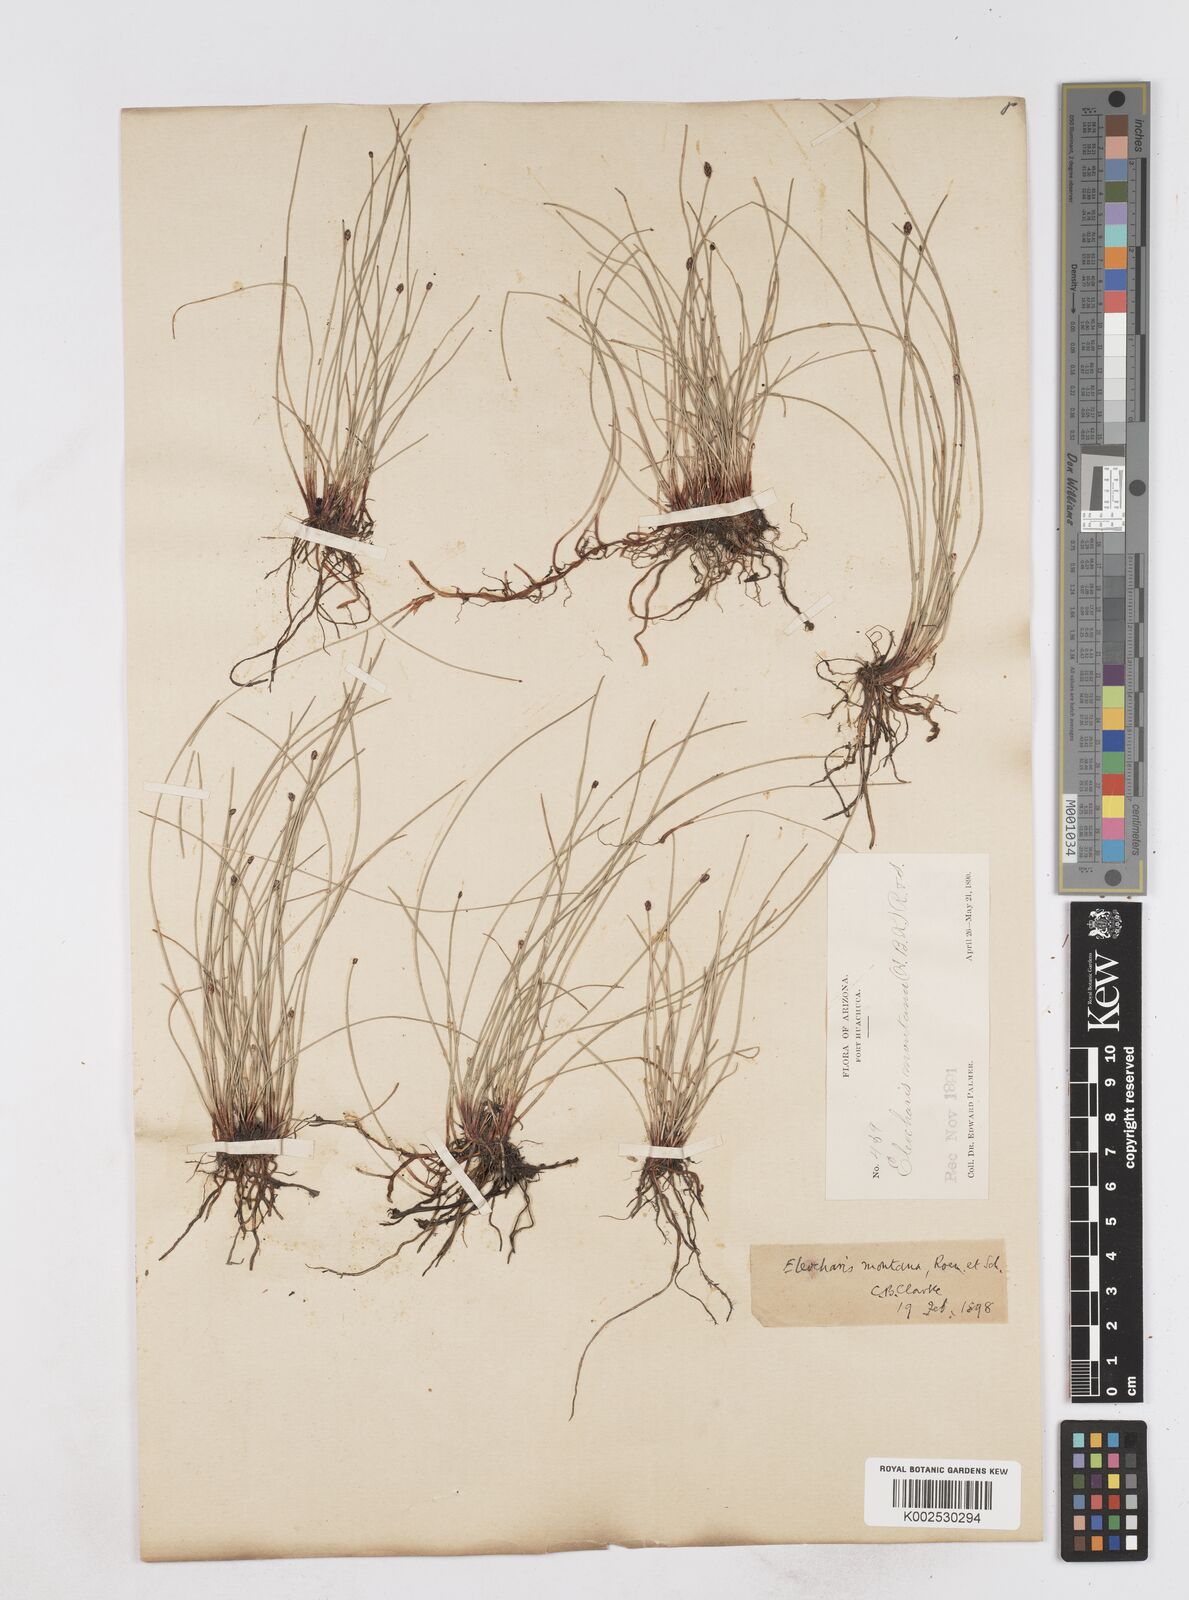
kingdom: Plantae
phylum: Tracheophyta
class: Liliopsida
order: Poales
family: Cyperaceae
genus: Eleocharis
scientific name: Eleocharis montana
